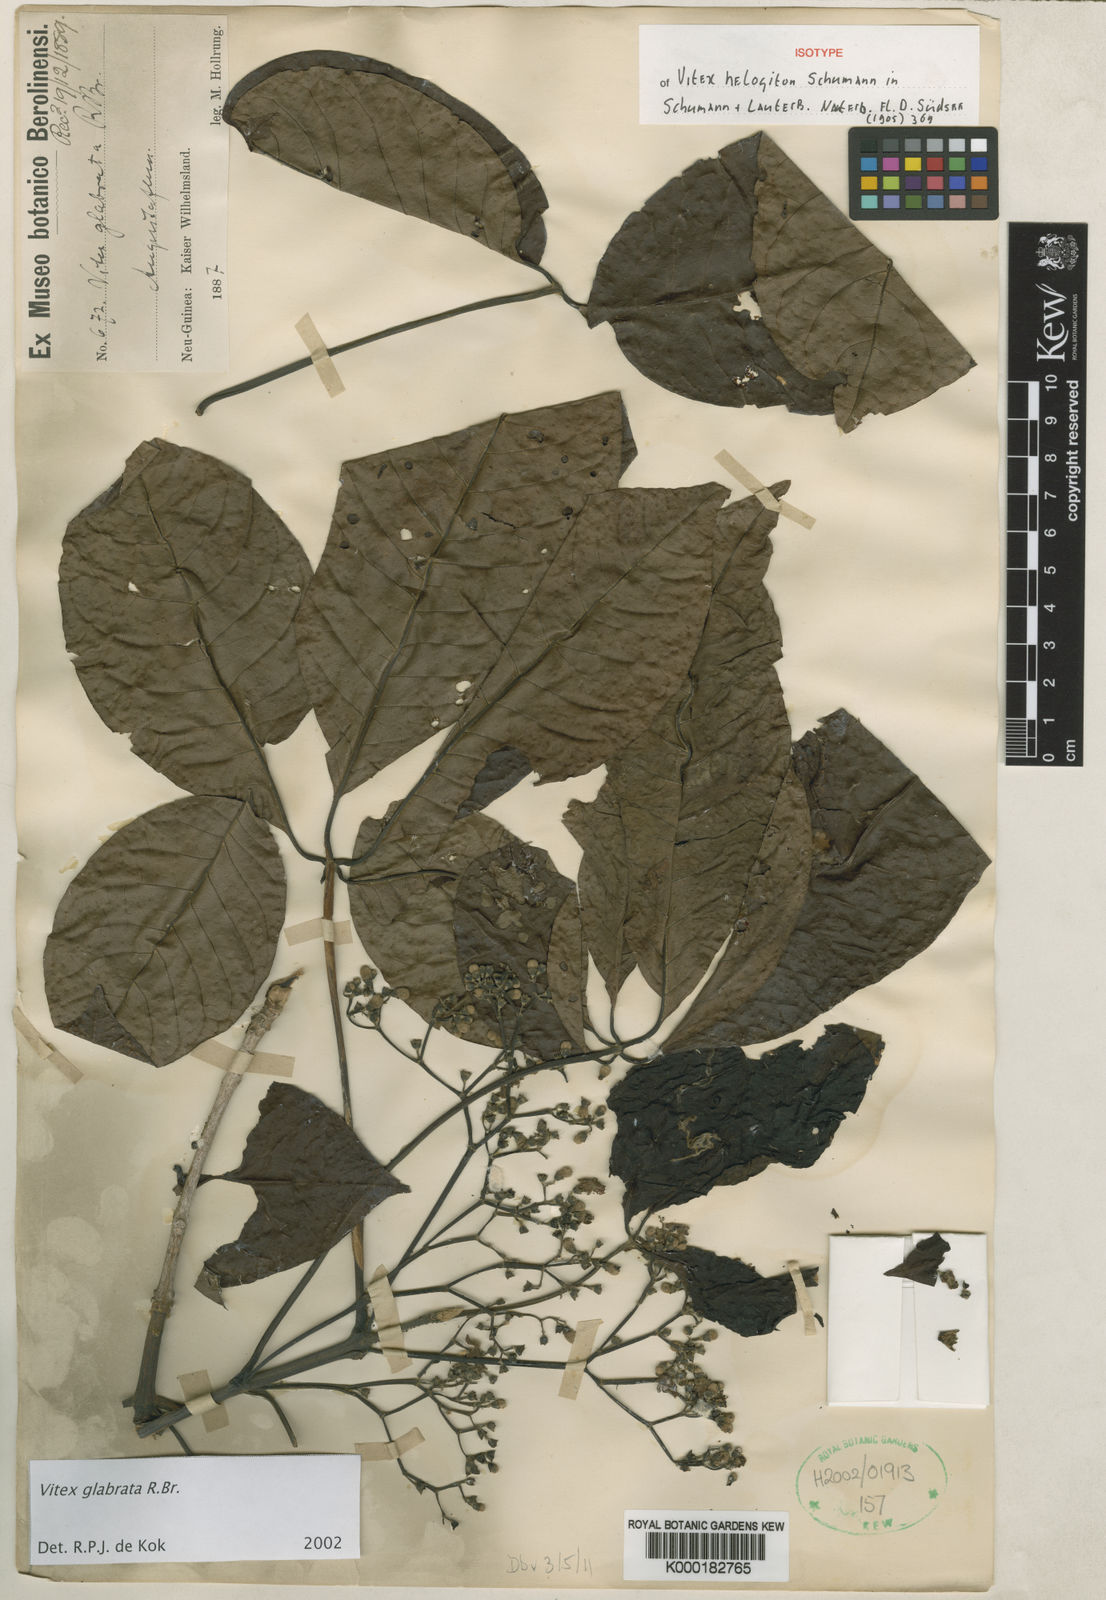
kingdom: Plantae
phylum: Tracheophyta
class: Magnoliopsida
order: Lamiales
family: Lamiaceae
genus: Vitex
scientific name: Vitex glabrata
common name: Smooth chastetree
